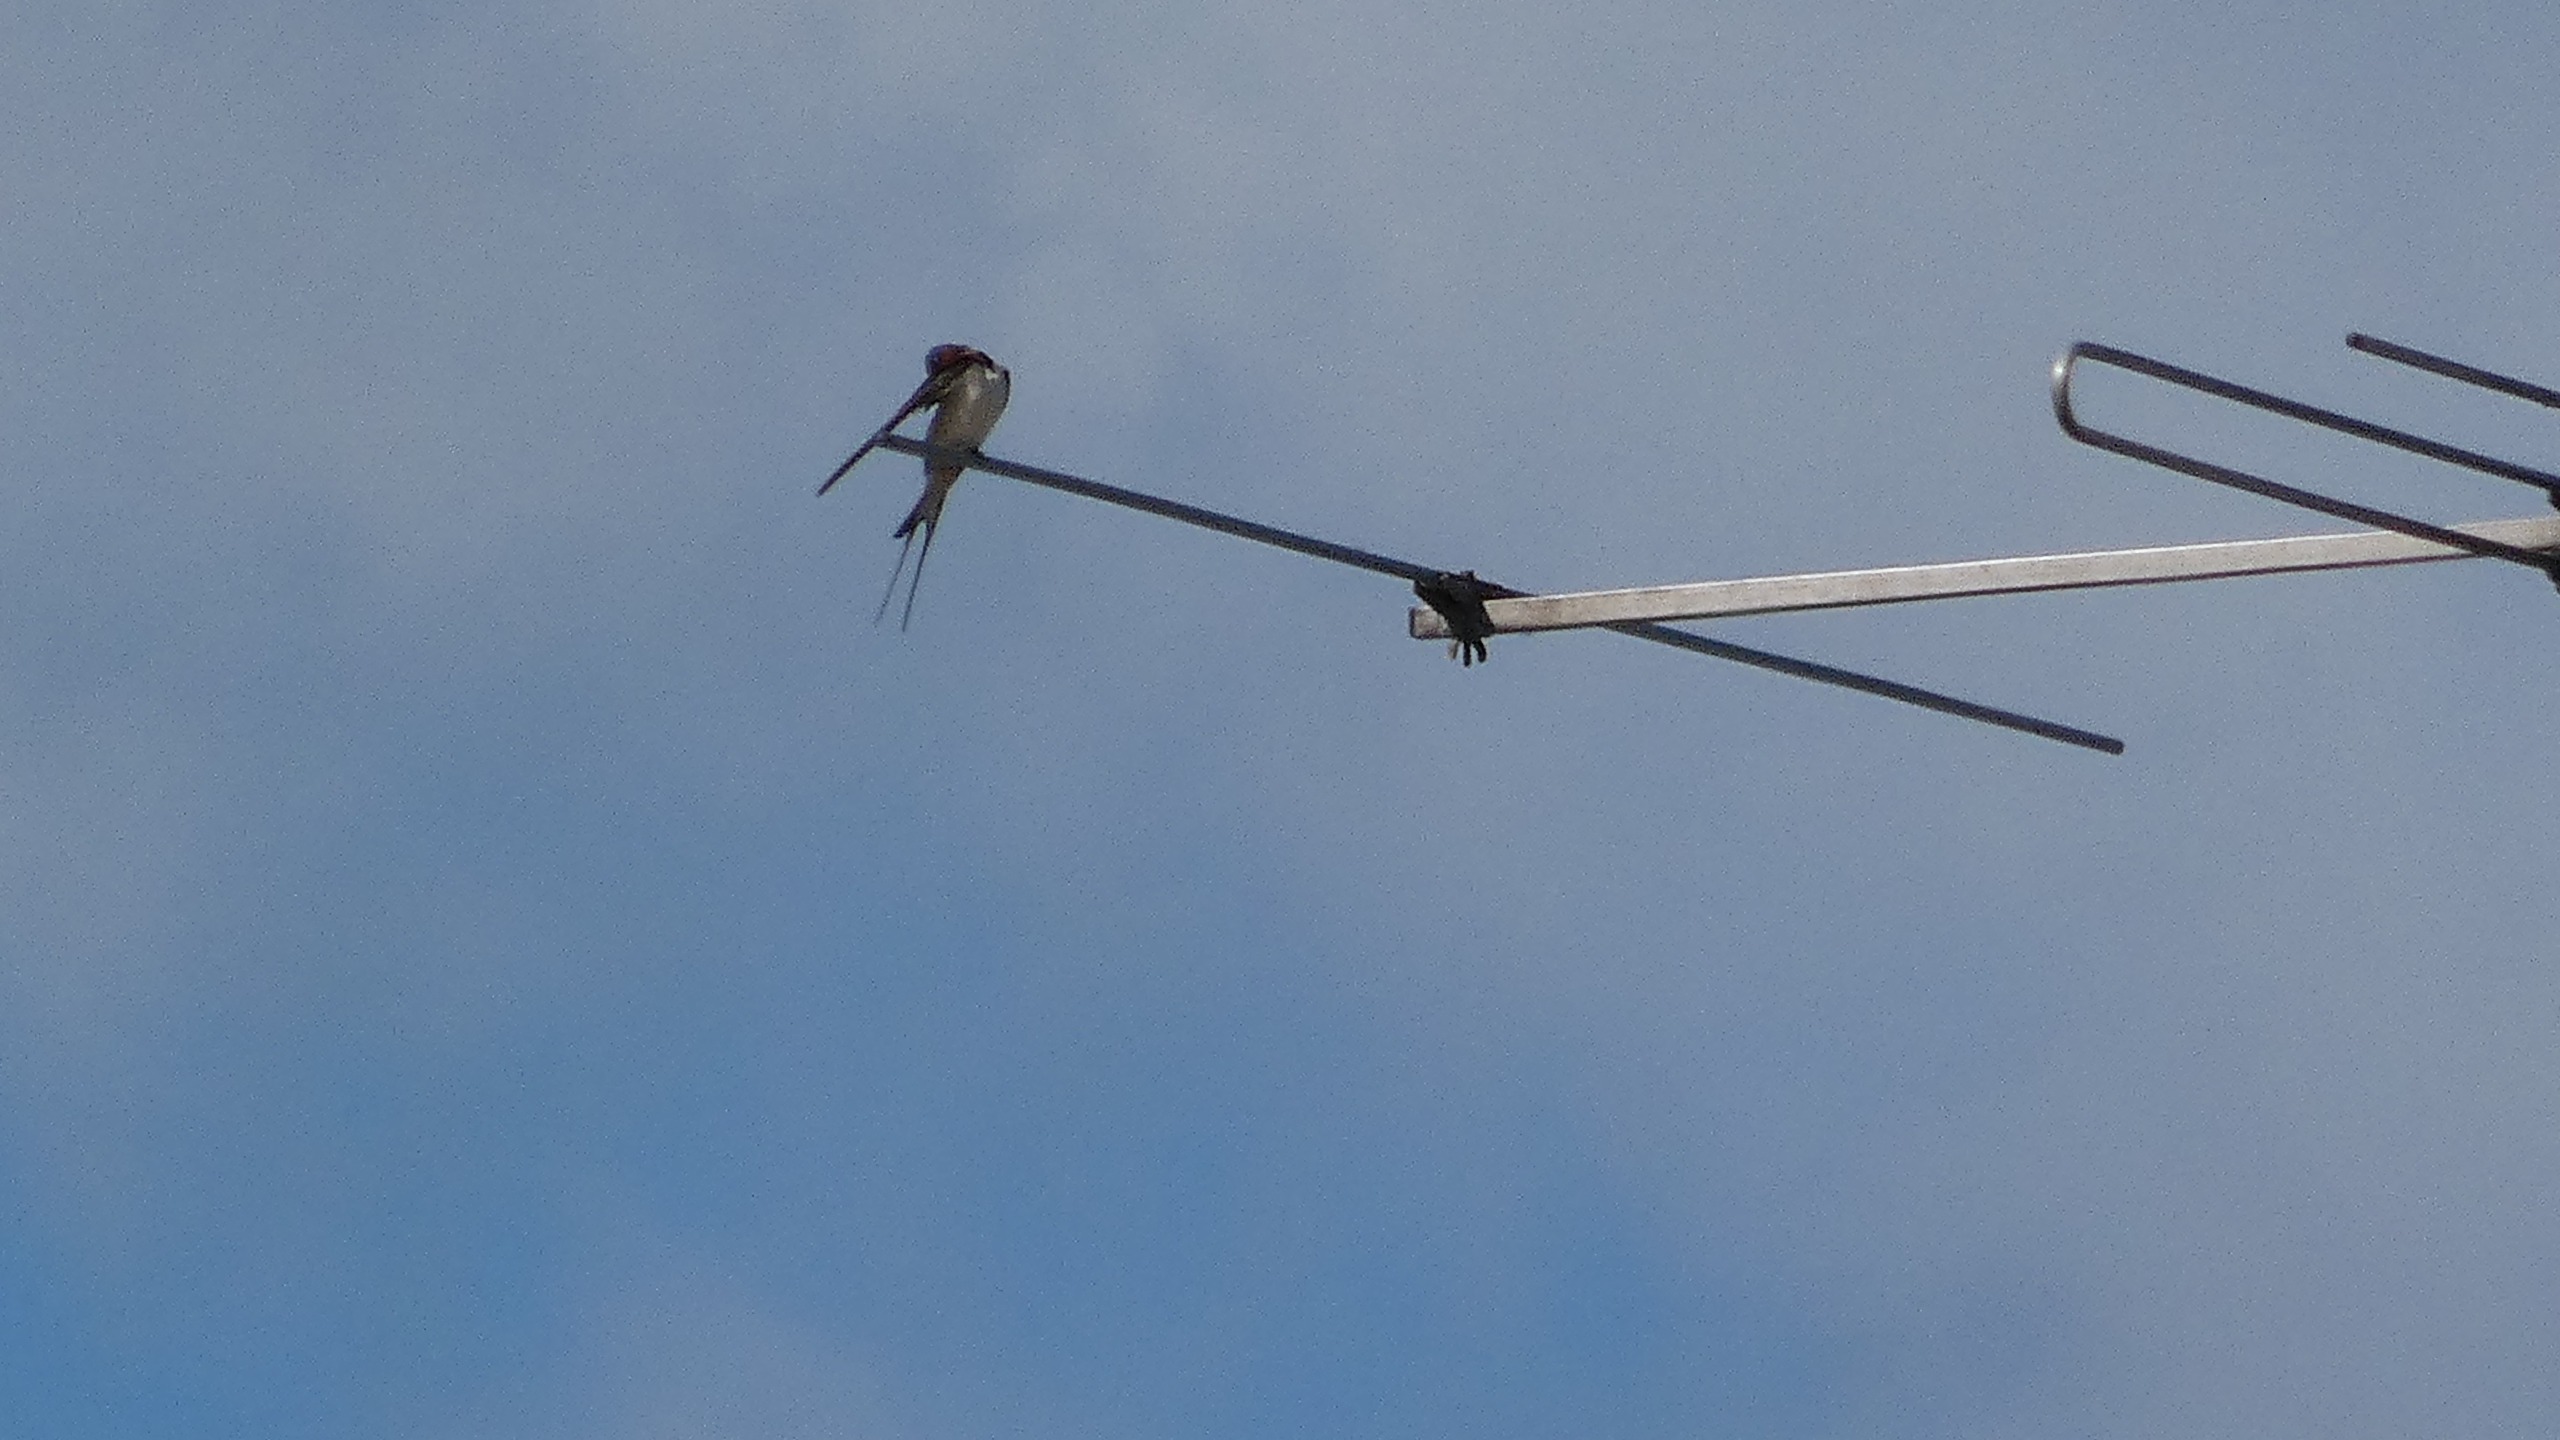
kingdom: Animalia
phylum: Chordata
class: Aves
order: Passeriformes
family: Hirundinidae
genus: Hirundo
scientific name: Hirundo rustica
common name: Landsvale
